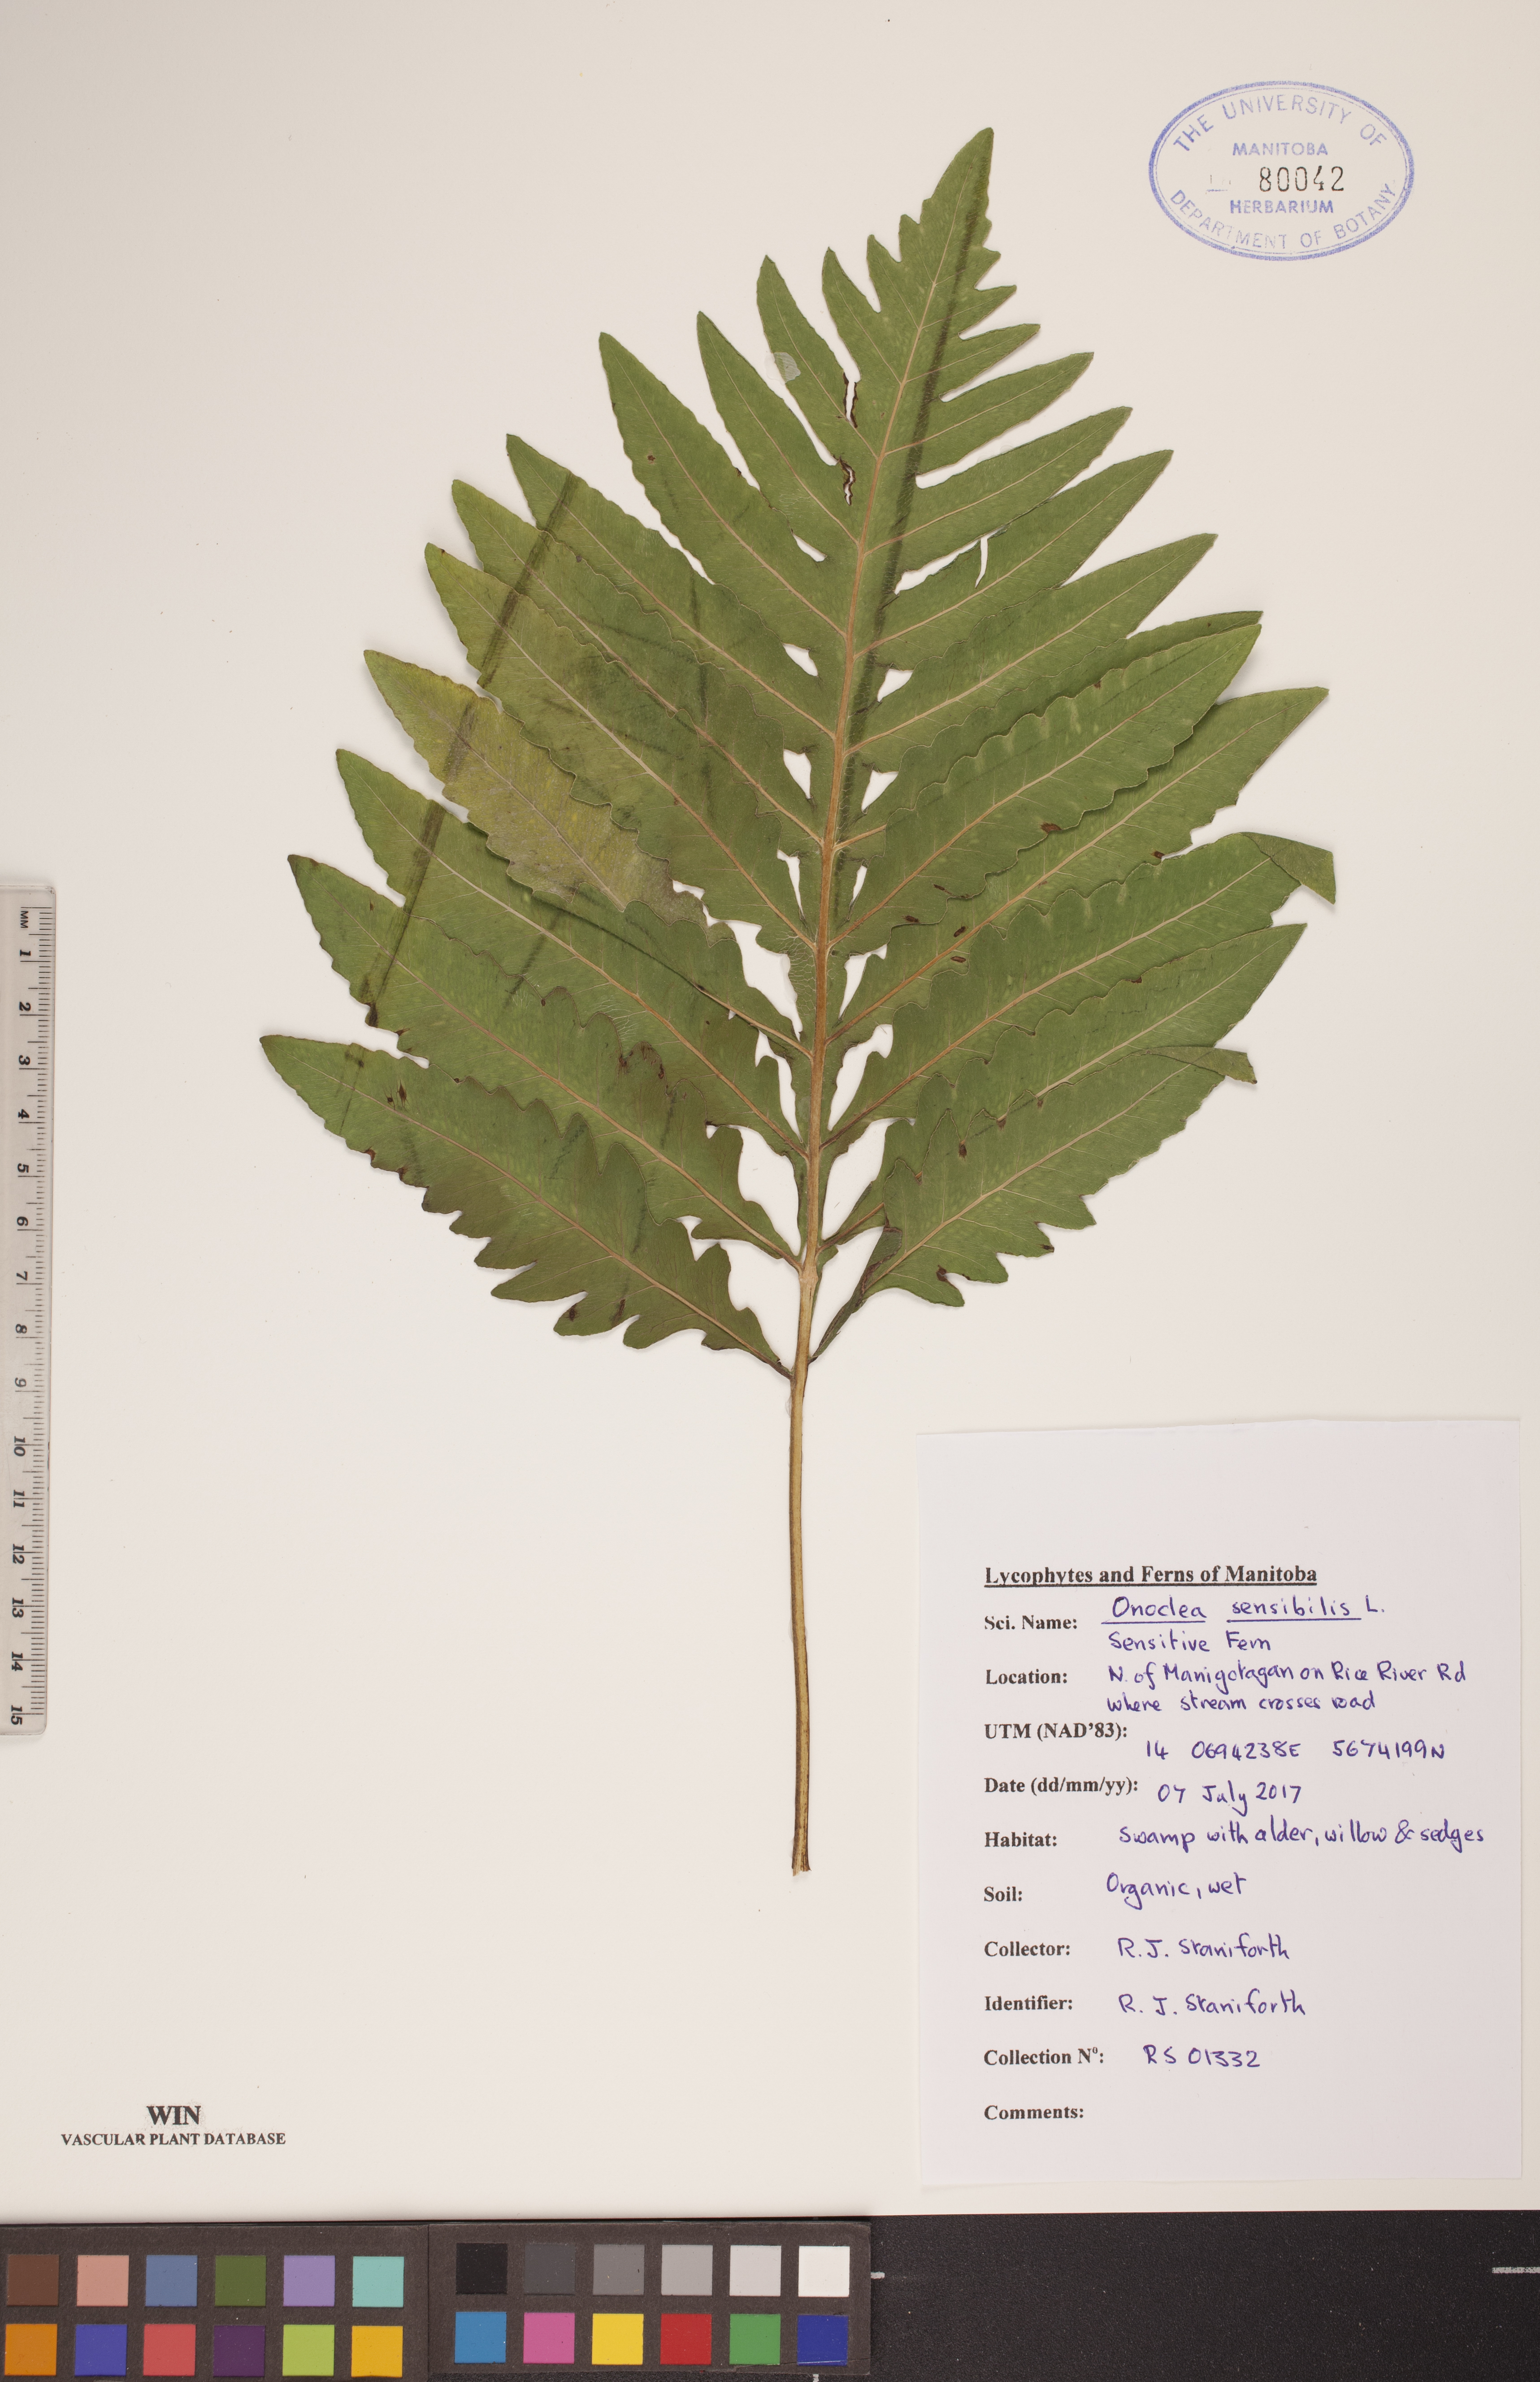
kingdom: Plantae
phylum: Tracheophyta
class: Polypodiopsida
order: Polypodiales
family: Onocleaceae
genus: Onoclea
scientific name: Onoclea sensibilis
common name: Sensitive fern
